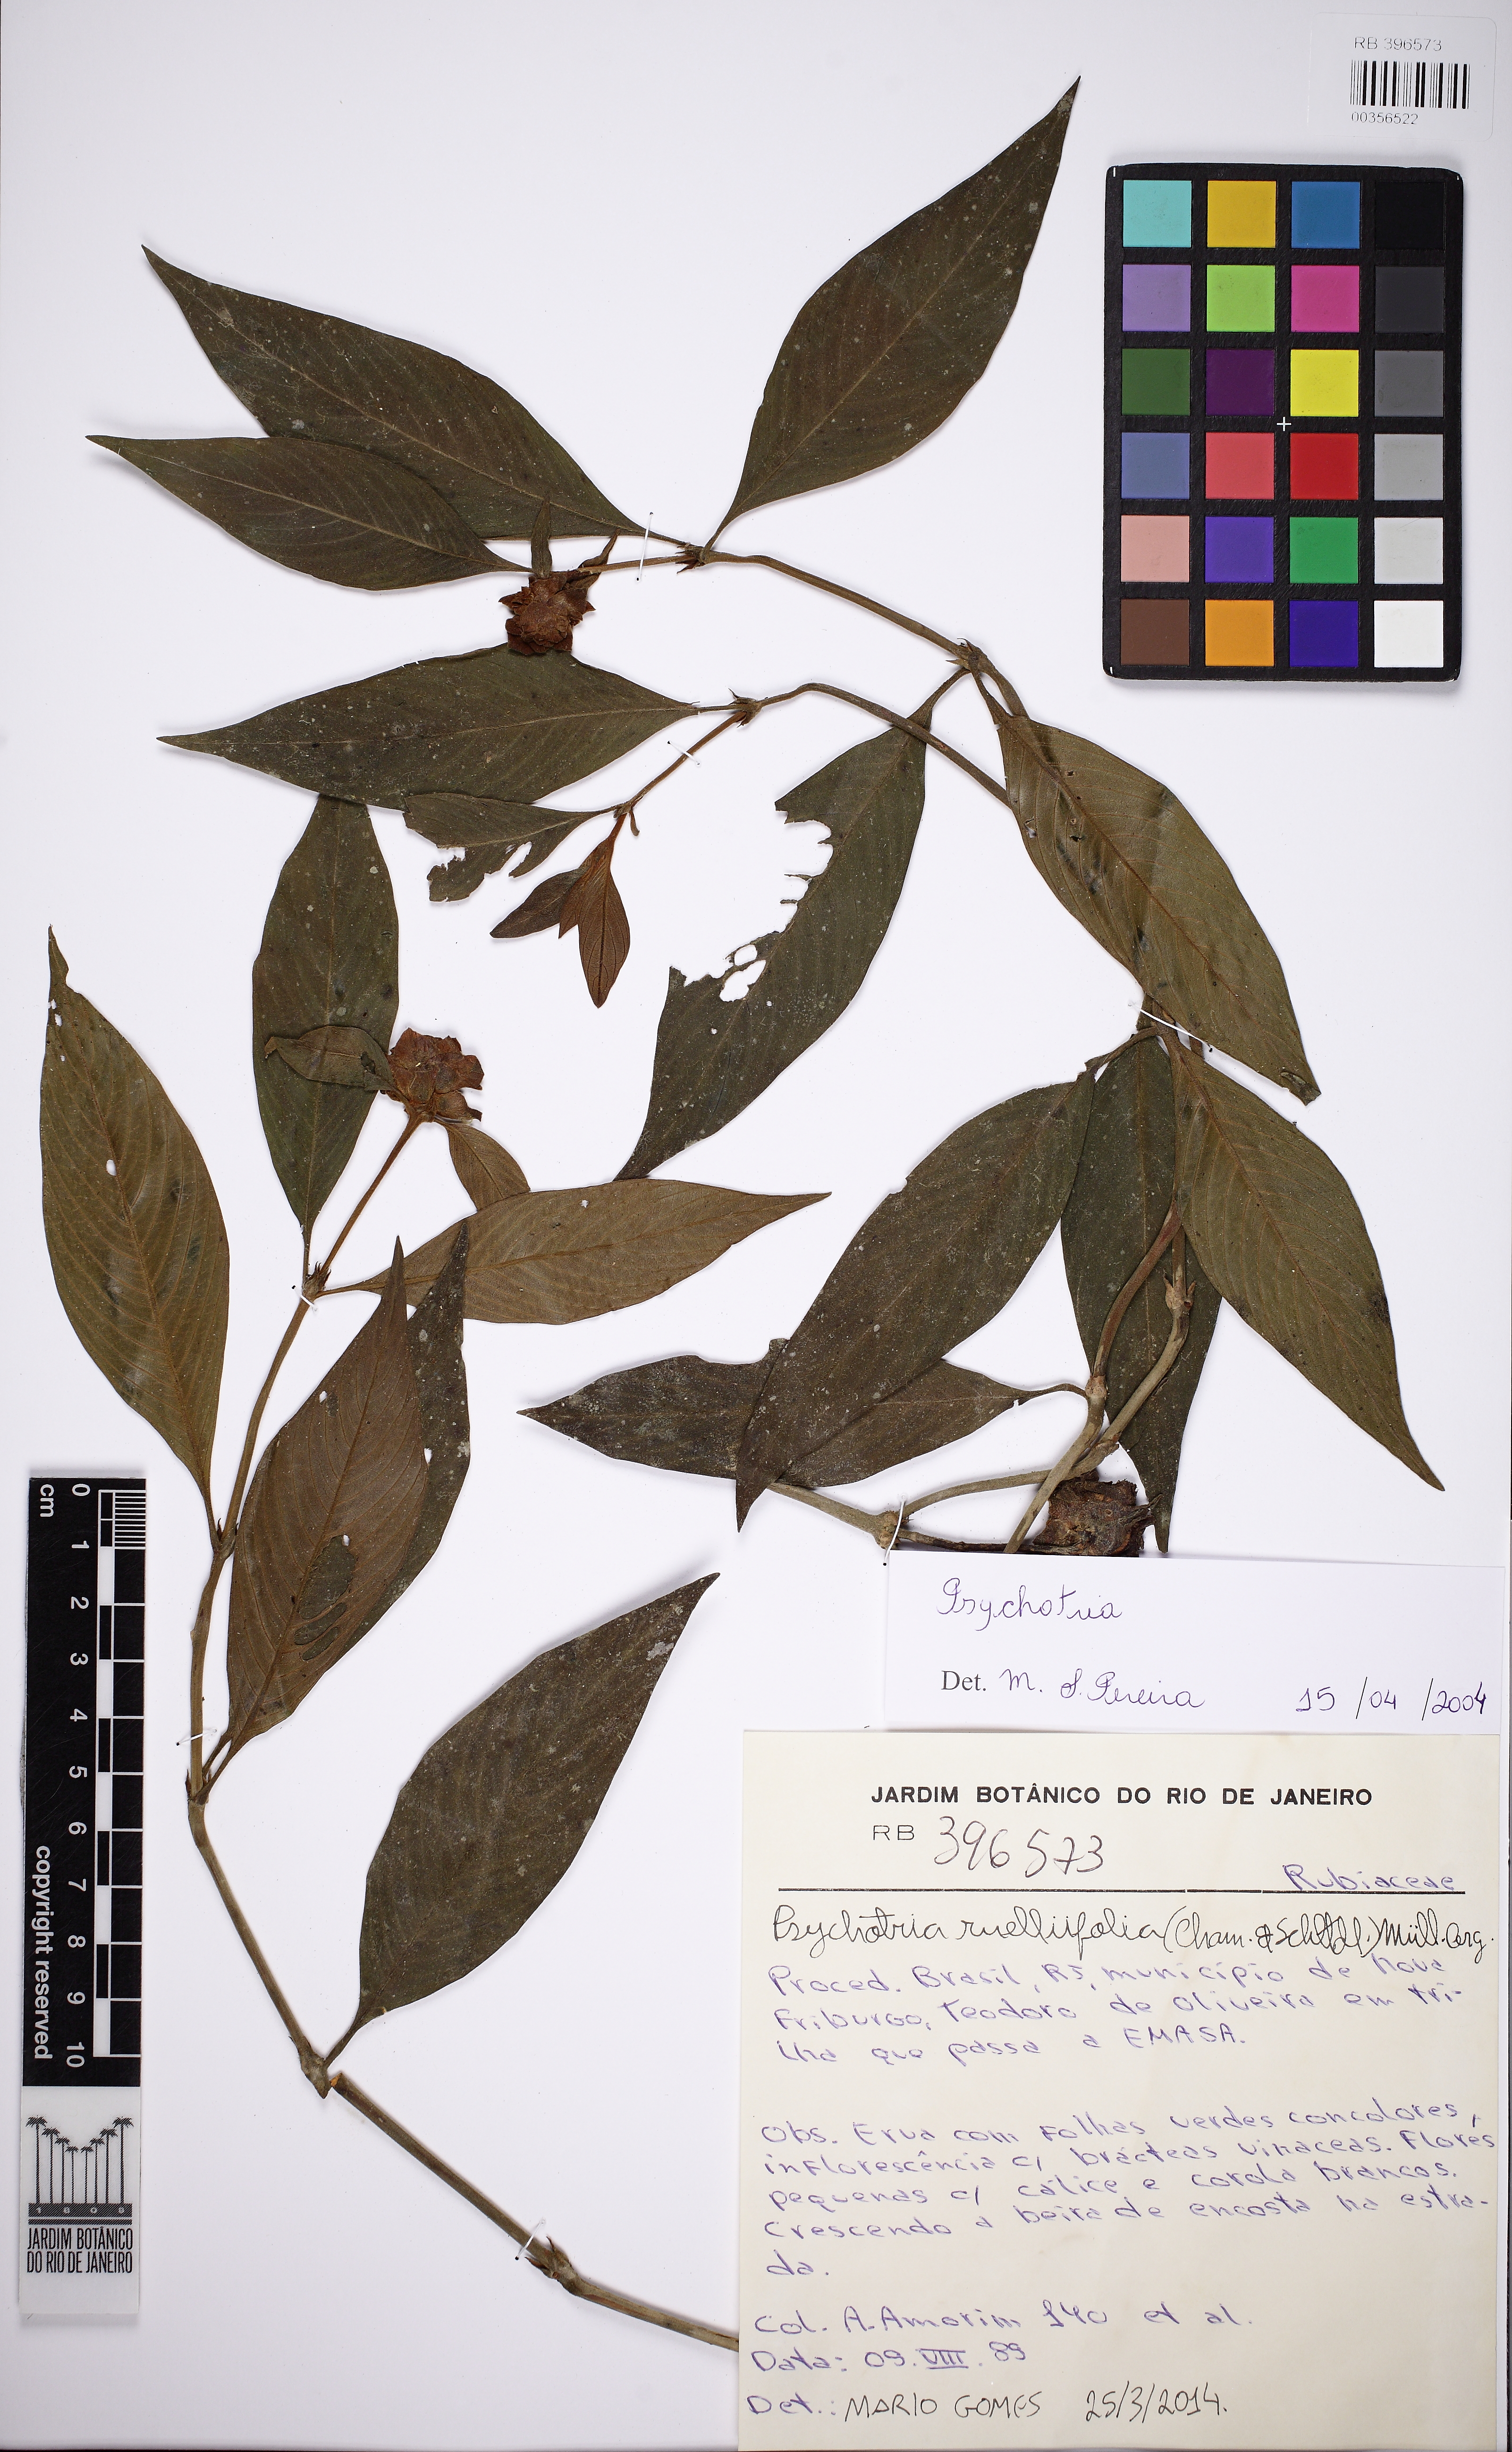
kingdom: Plantae
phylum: Tracheophyta
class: Magnoliopsida
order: Gentianales
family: Rubiaceae
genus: Palicourea
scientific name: Palicourea ruelliifolia
